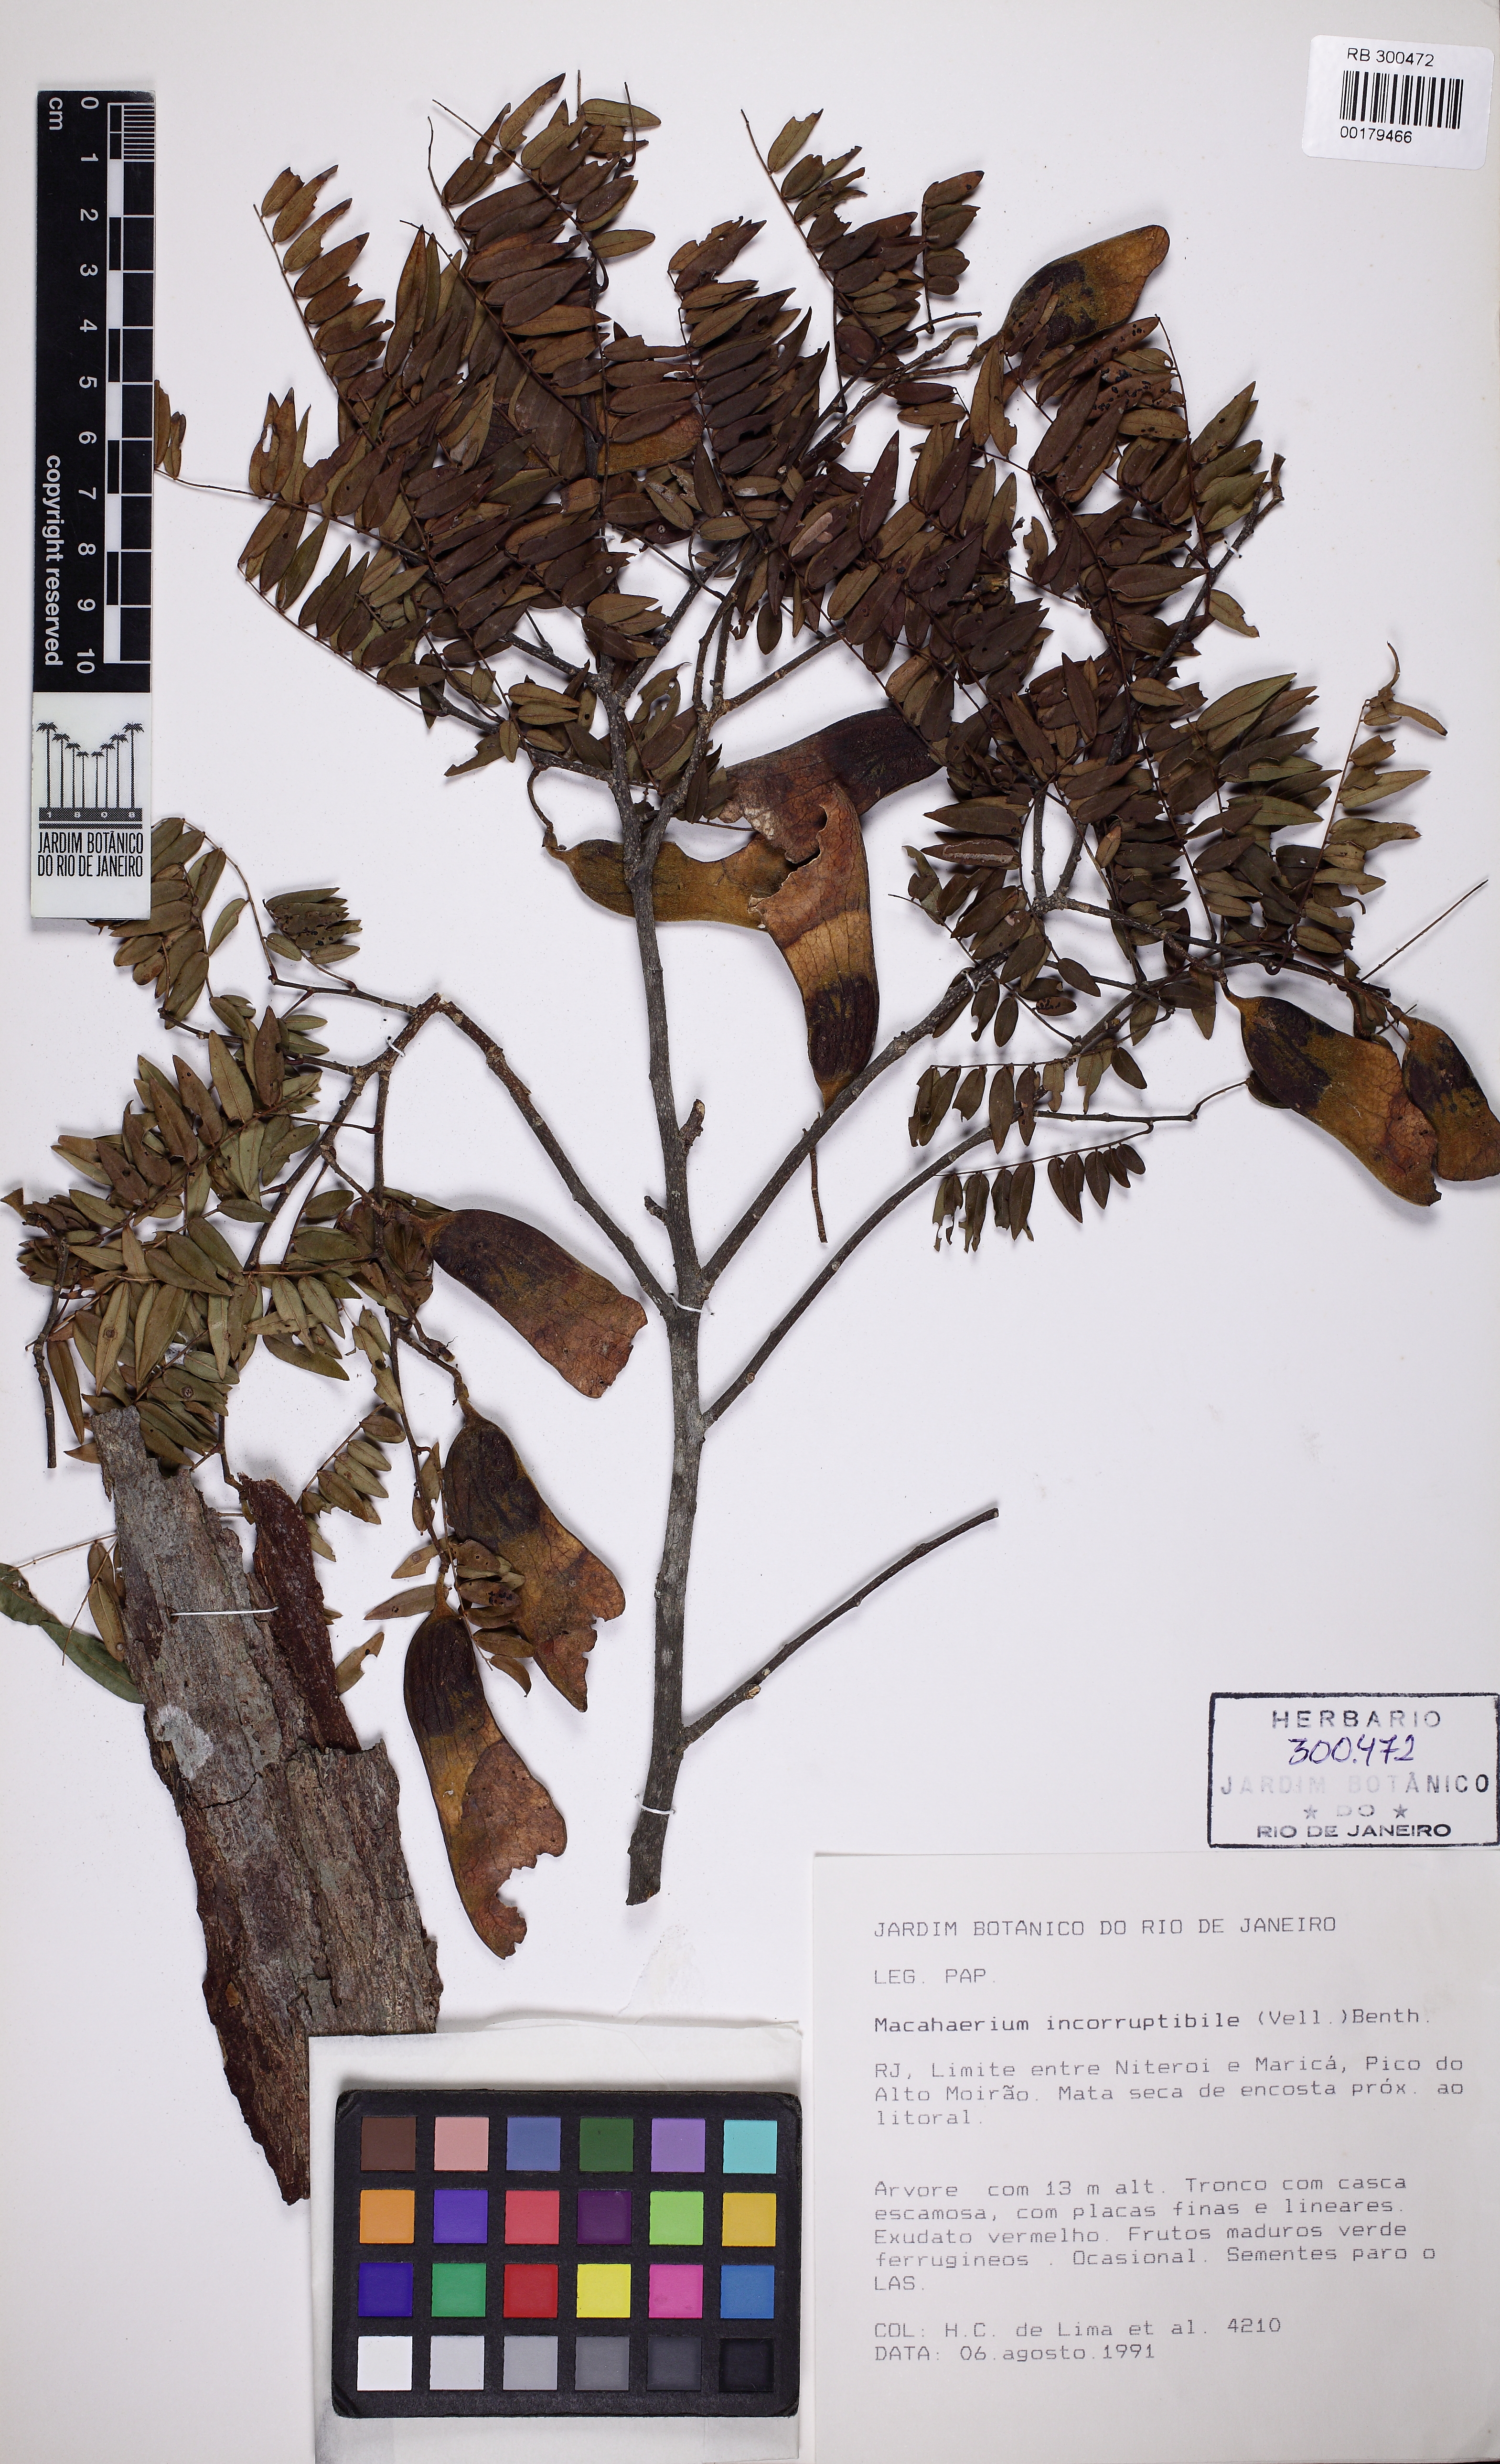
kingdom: Plantae
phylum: Tracheophyta
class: Magnoliopsida
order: Fabales
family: Fabaceae
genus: Machaerium
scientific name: Machaerium incorruptibile
